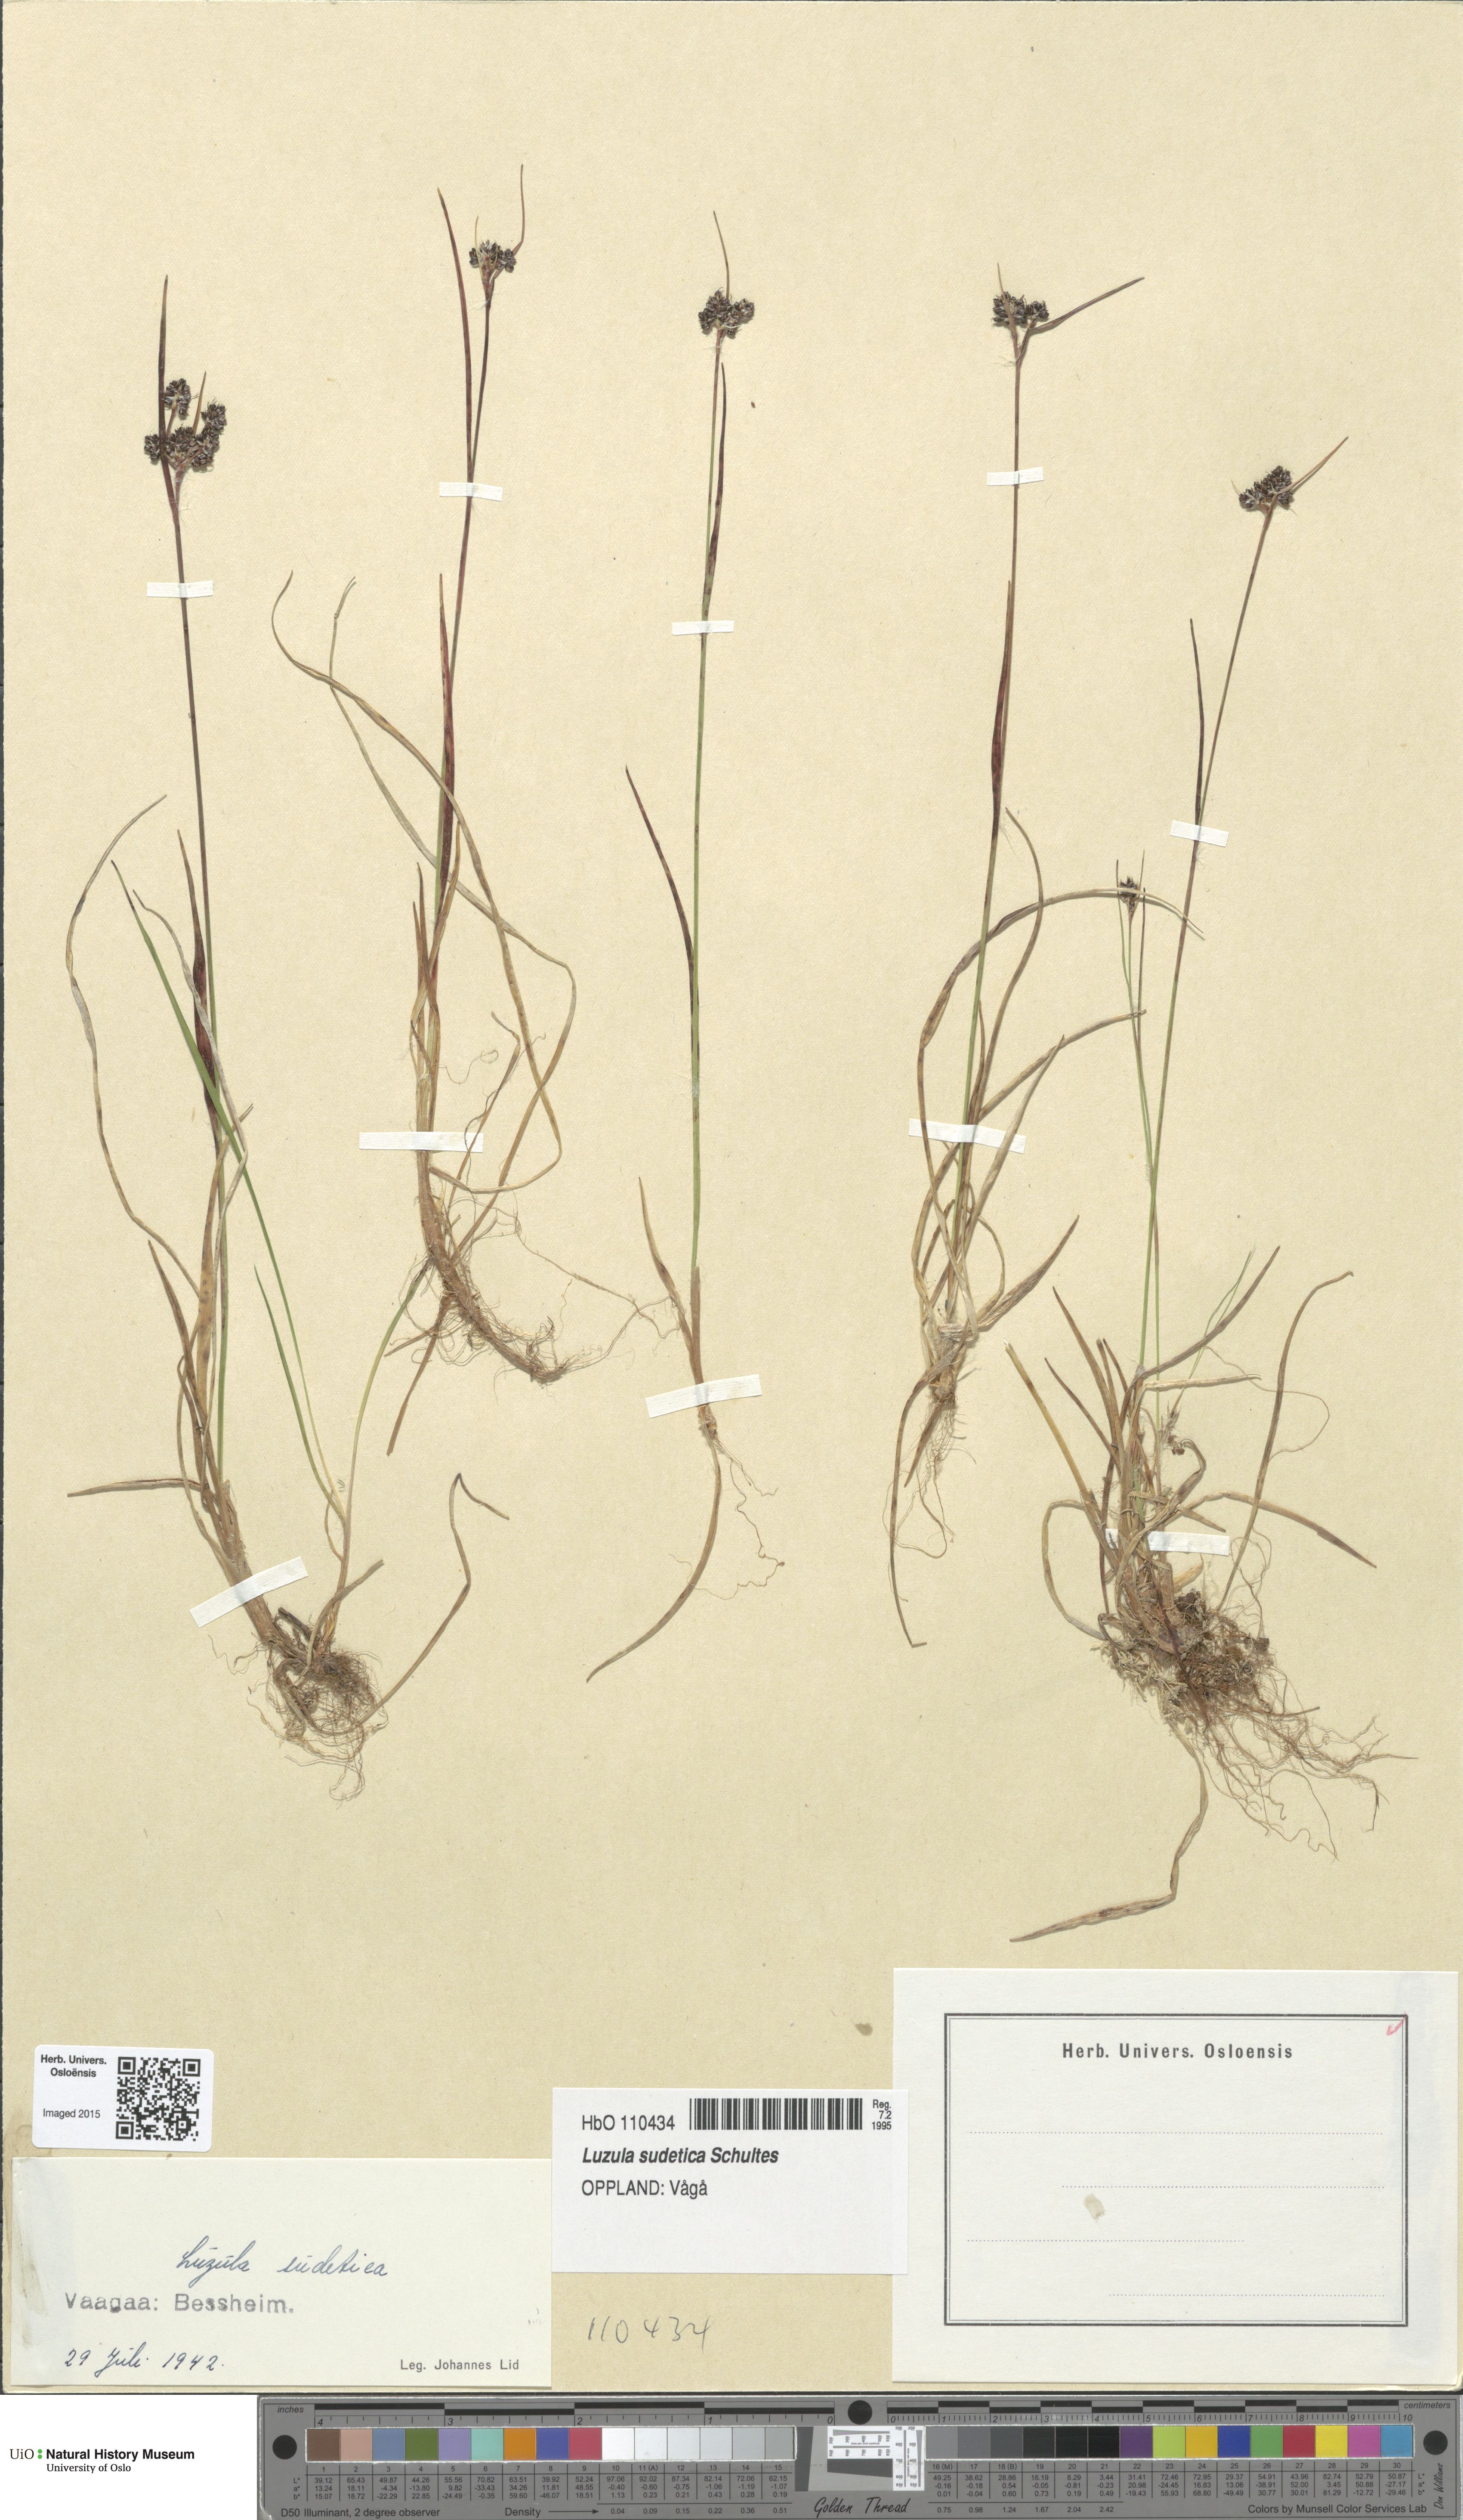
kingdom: Plantae
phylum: Tracheophyta
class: Liliopsida
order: Poales
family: Juncaceae
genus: Luzula
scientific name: Luzula sudetica
